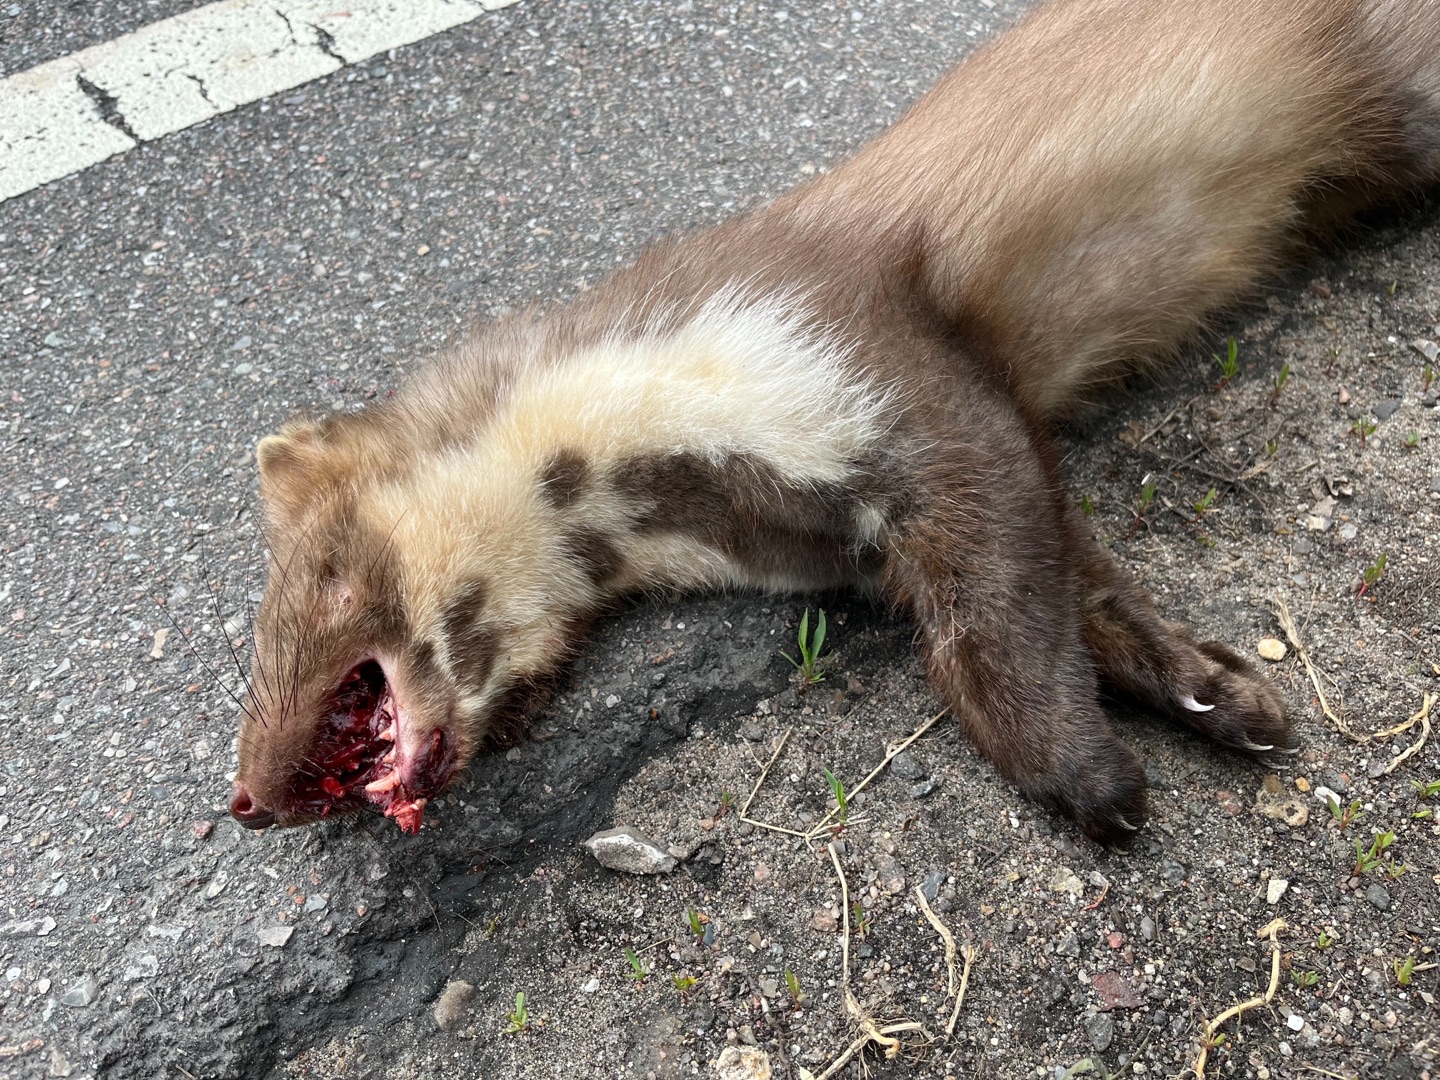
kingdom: Animalia
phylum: Chordata
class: Mammalia
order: Carnivora
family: Mustelidae
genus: Martes
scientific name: Martes foina
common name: Husmår
